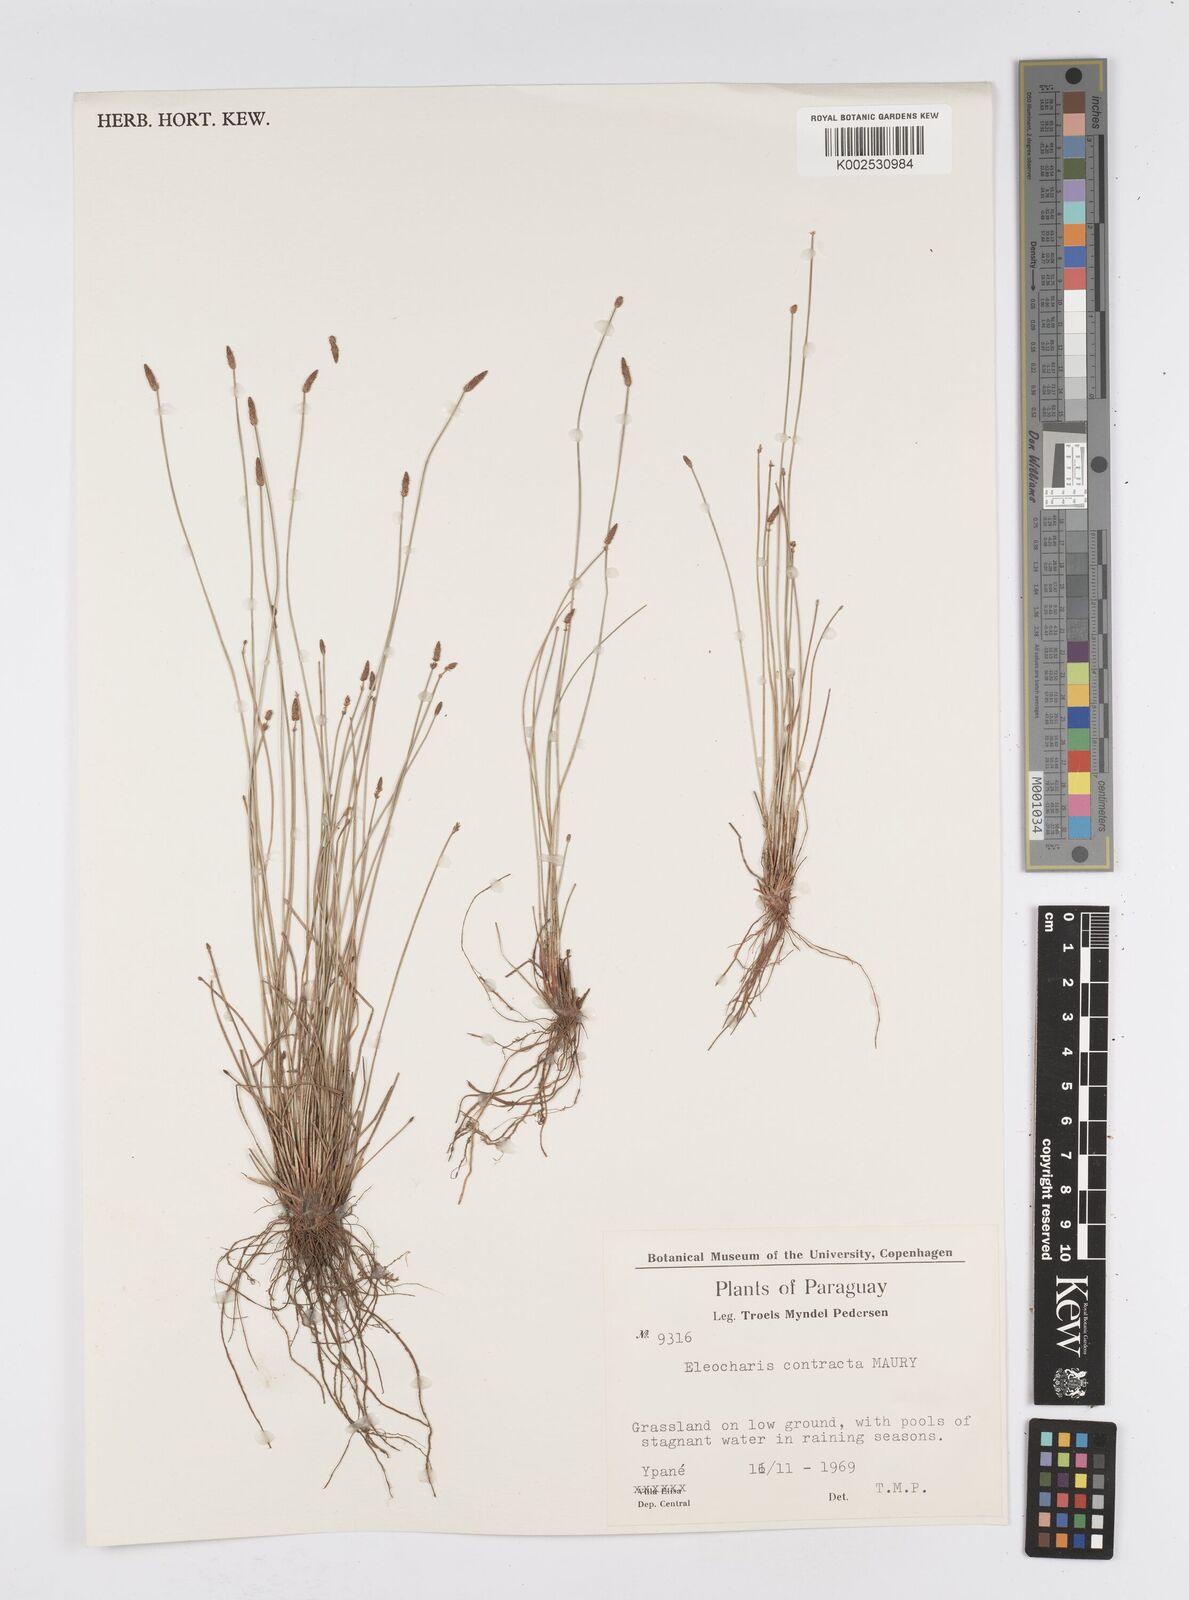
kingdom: Plantae
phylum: Tracheophyta
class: Liliopsida
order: Poales
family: Cyperaceae
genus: Eleocharis
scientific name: Eleocharis montana
